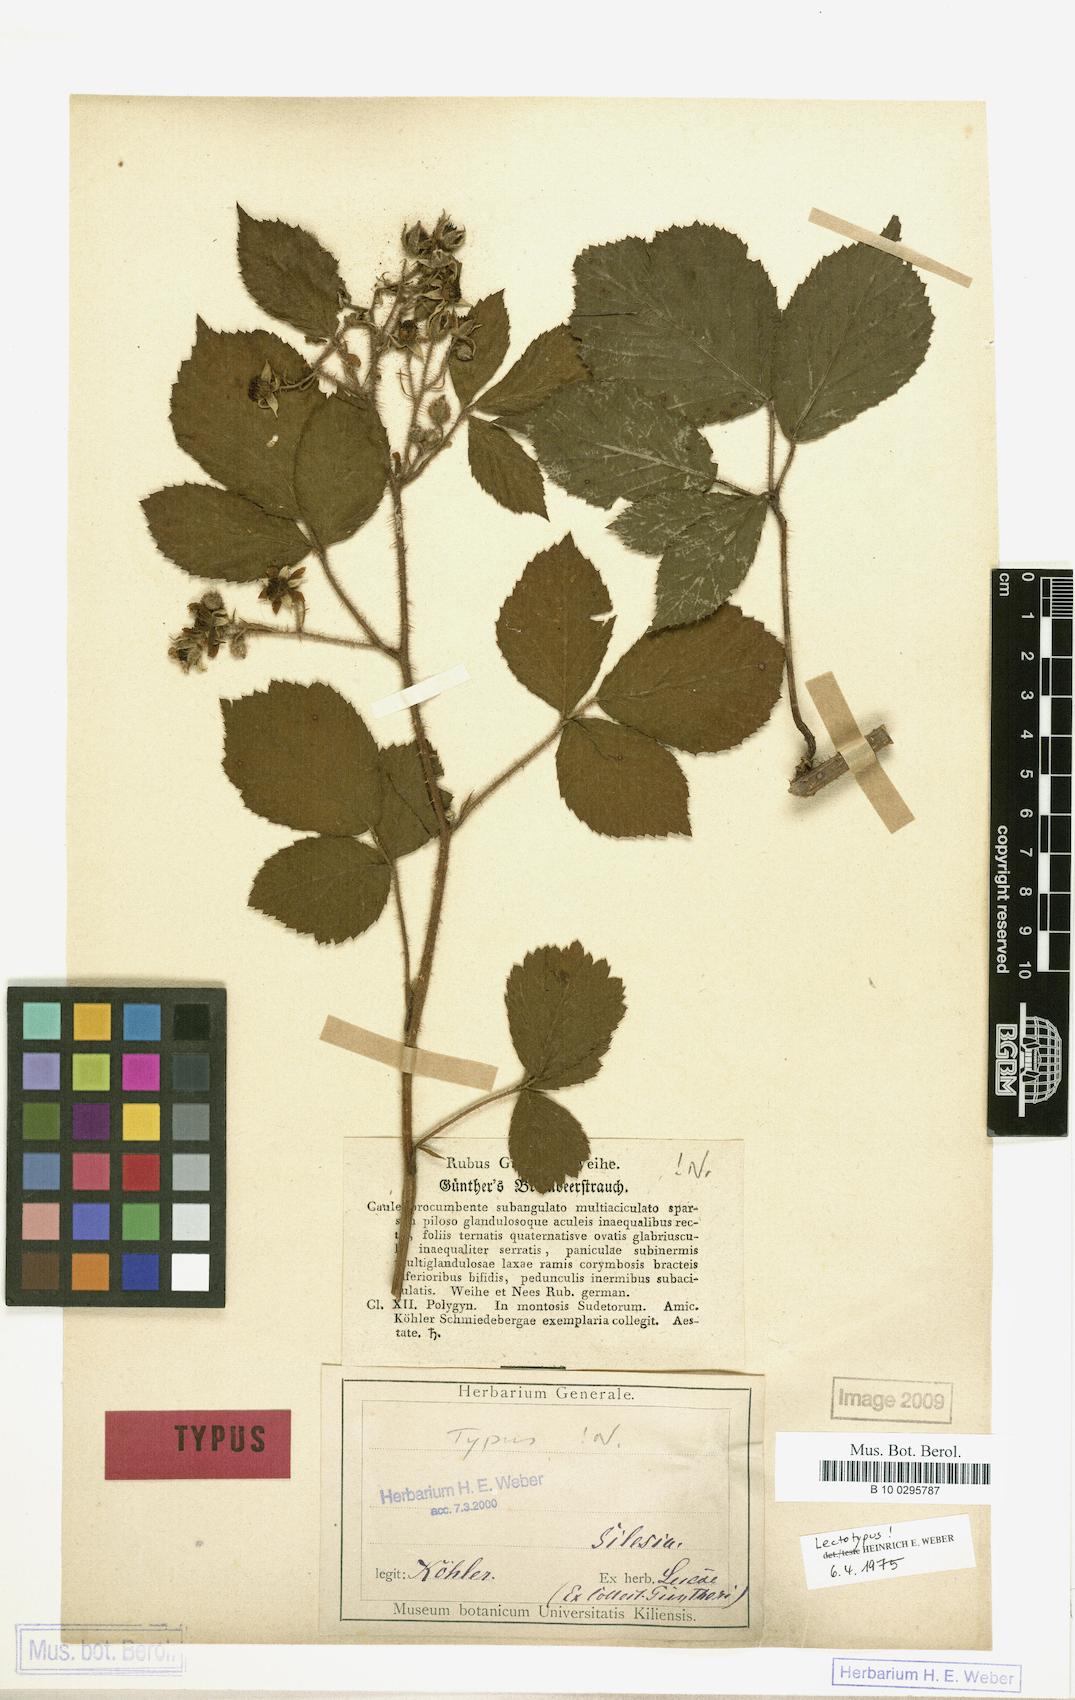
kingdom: Plantae
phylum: Tracheophyta
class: Magnoliopsida
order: Rosales
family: Rosaceae
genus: Rubus
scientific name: Rubus guentheri
